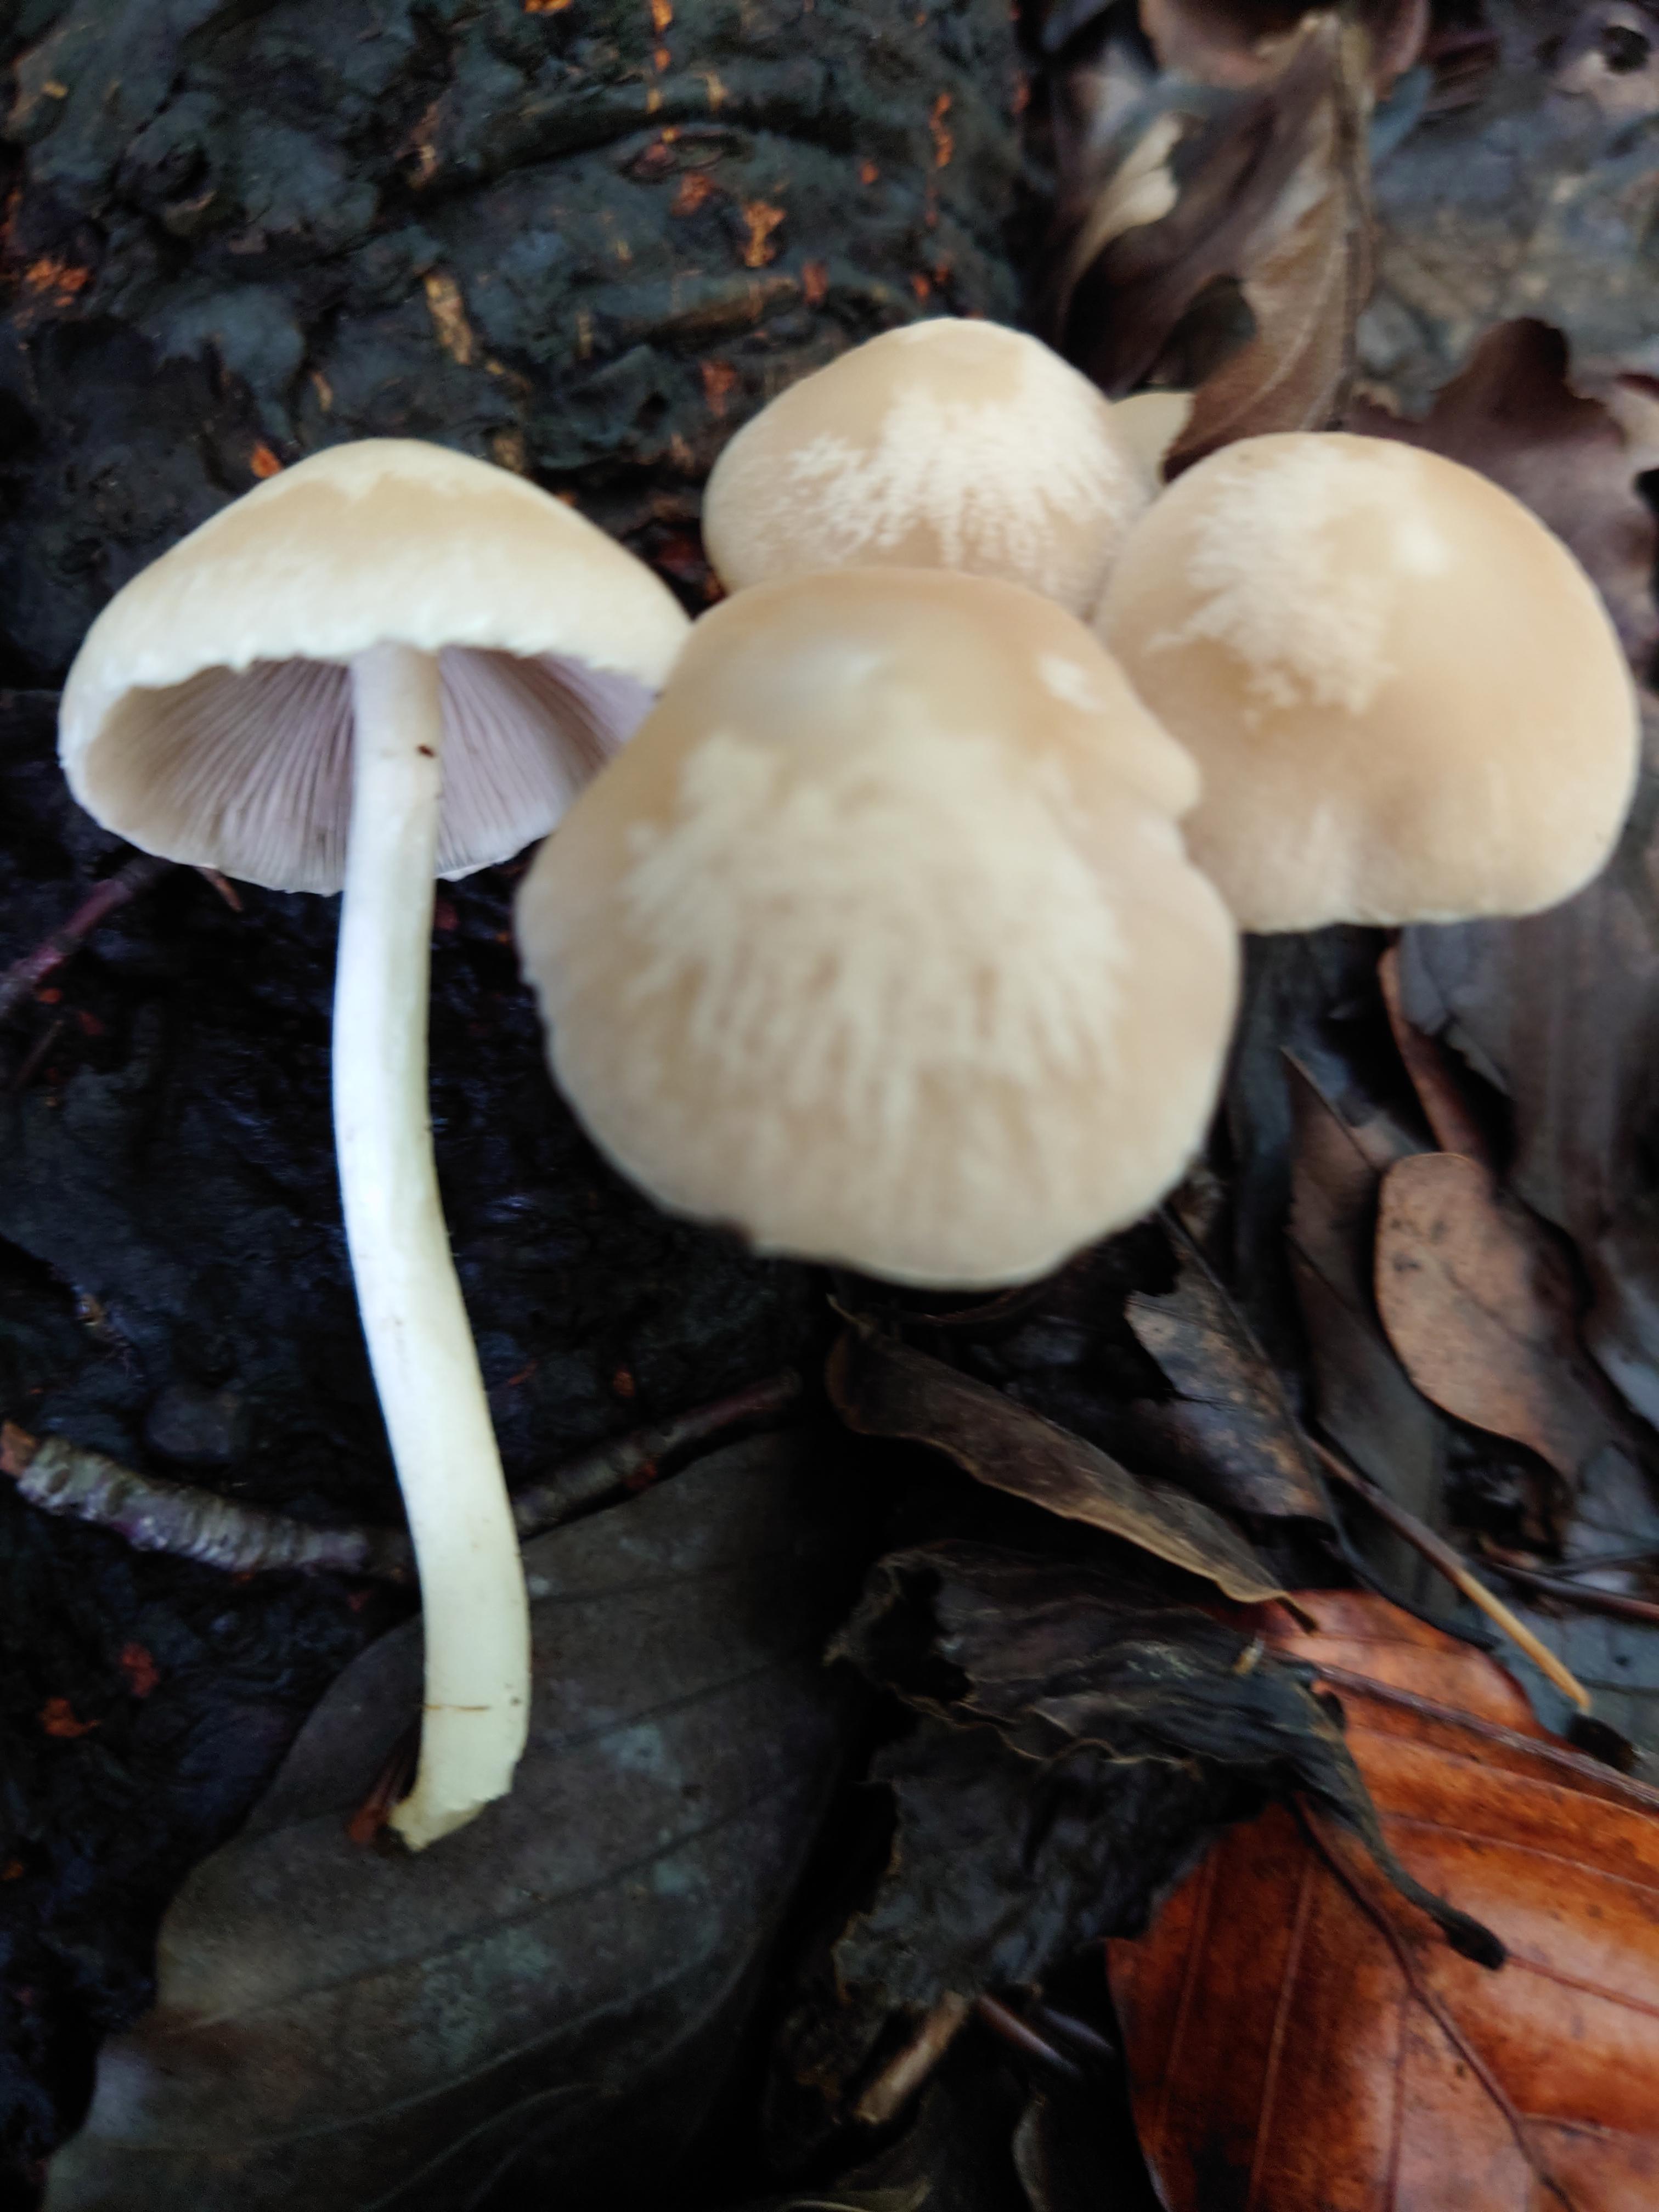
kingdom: Fungi
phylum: Basidiomycota
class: Agaricomycetes
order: Agaricales
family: Psathyrellaceae
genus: Candolleomyces
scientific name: Candolleomyces candolleanus
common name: Candolles mørkhat
